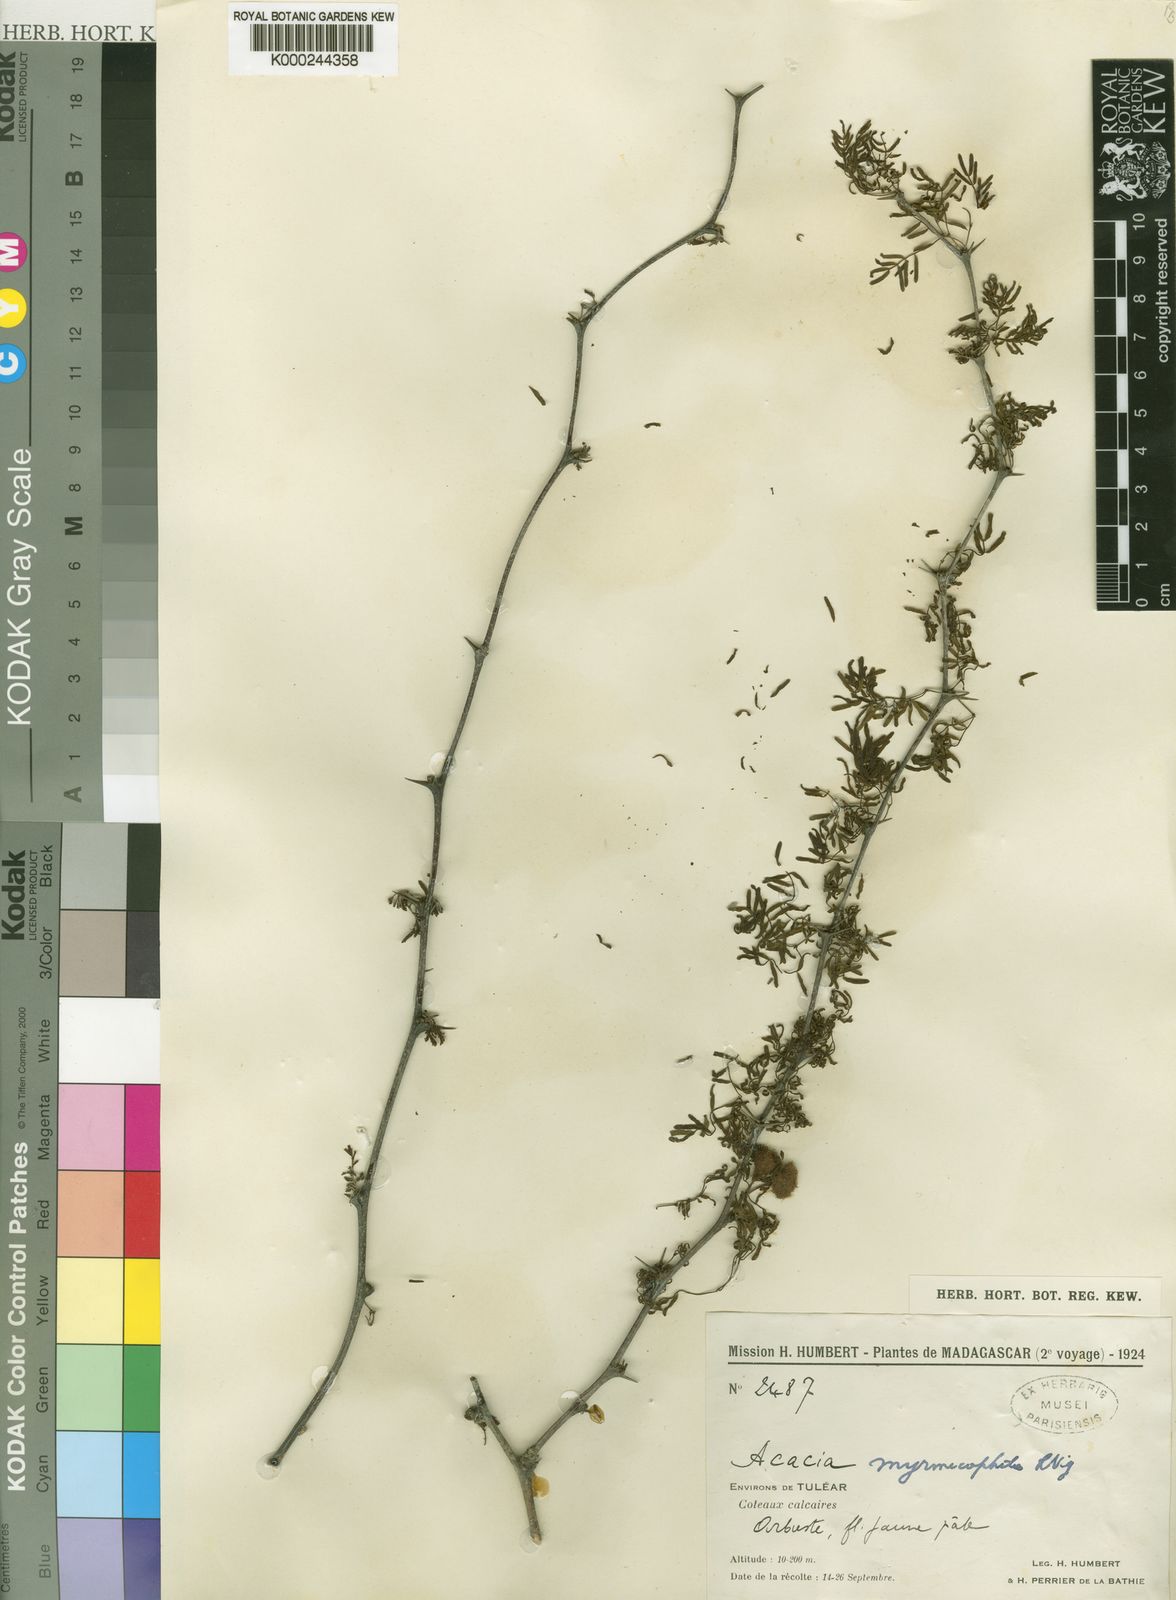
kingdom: Plantae
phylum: Tracheophyta
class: Magnoliopsida
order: Fabales
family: Fabaceae
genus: Vachellia
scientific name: Vachellia viguieri
